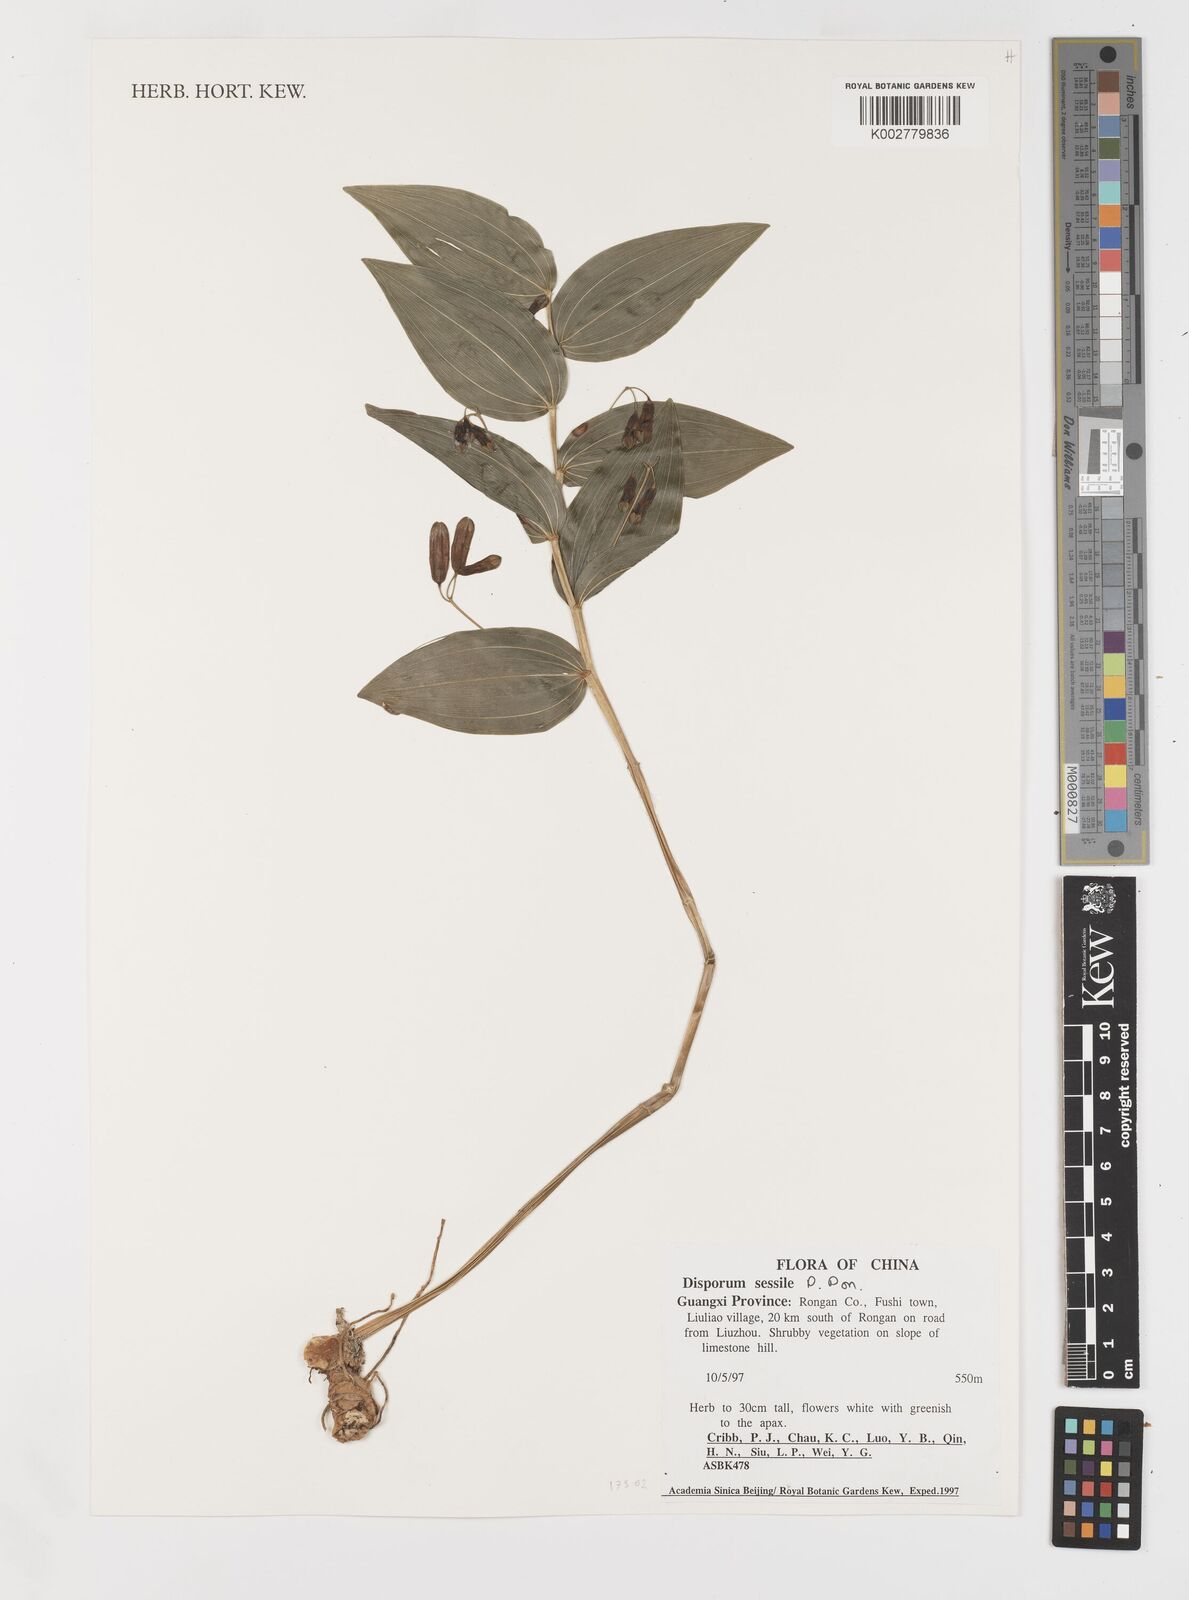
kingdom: Plantae
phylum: Tracheophyta
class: Liliopsida
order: Liliales
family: Colchicaceae
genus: Disporum
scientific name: Disporum sessile
